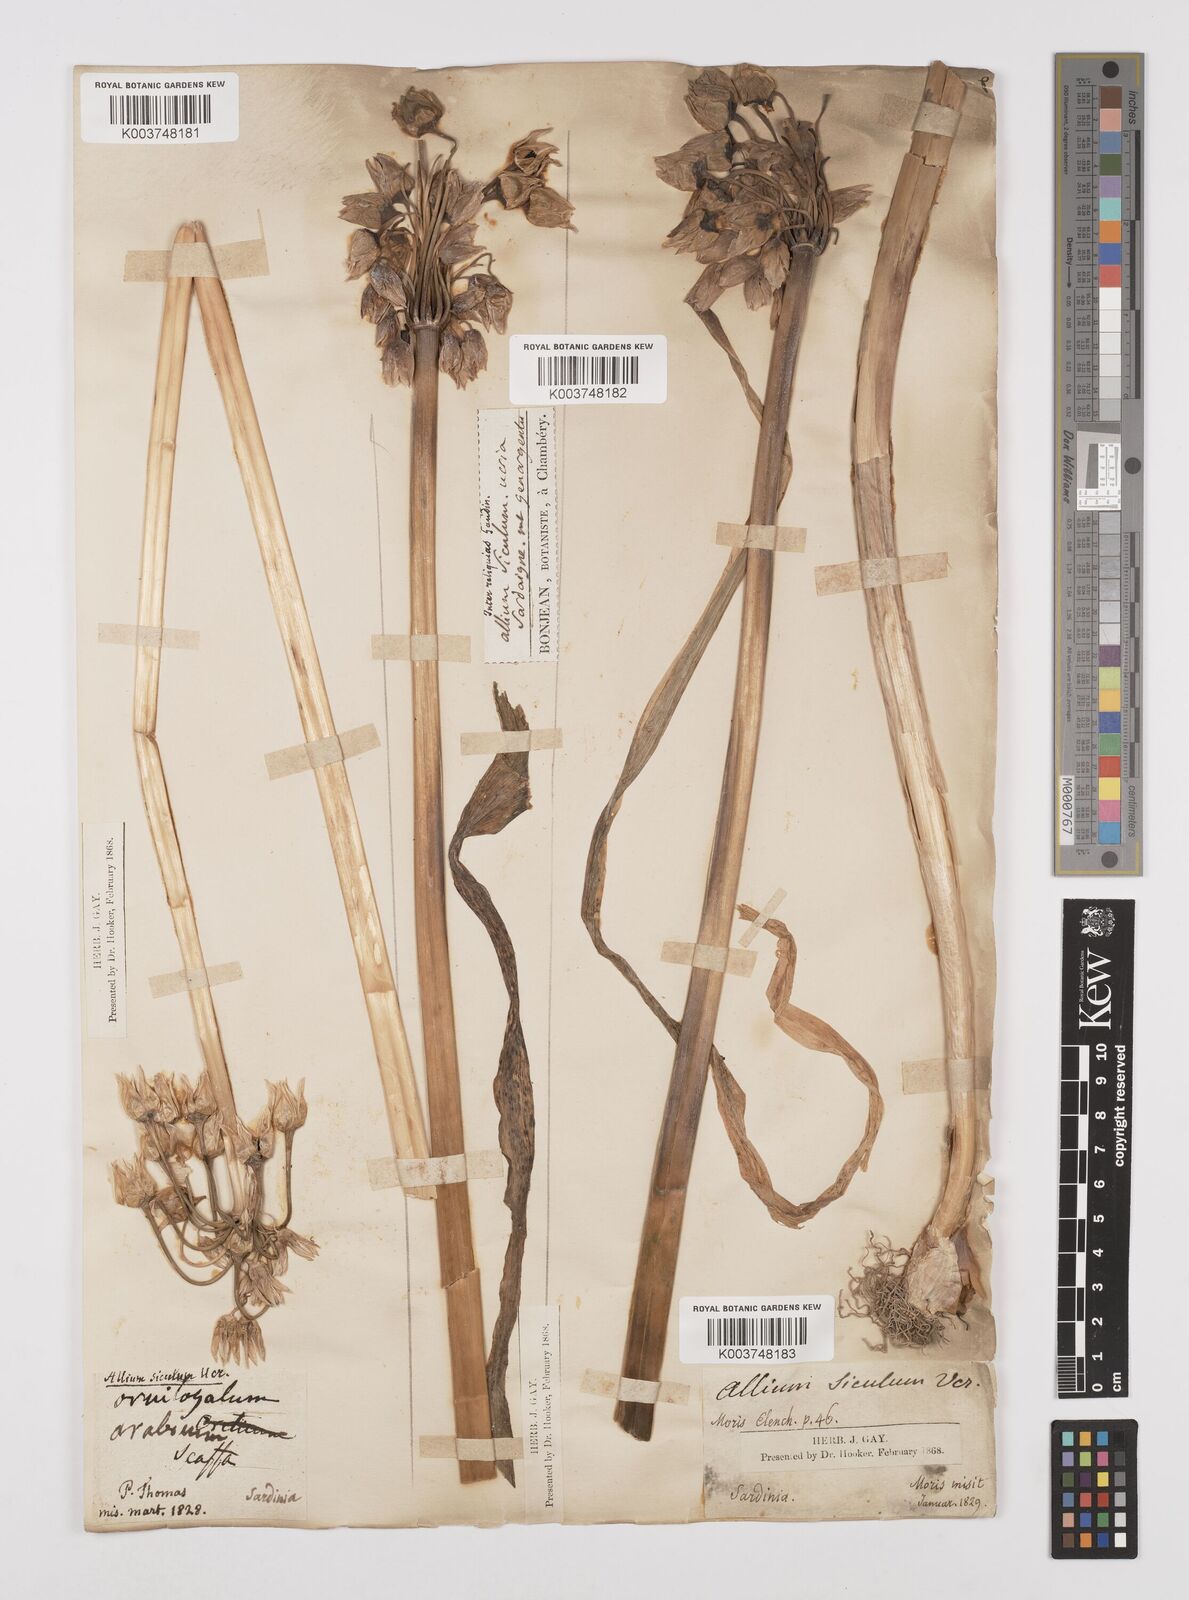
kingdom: Plantae
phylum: Tracheophyta
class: Liliopsida
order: Asparagales
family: Amaryllidaceae
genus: Allium
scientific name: Allium siculum
